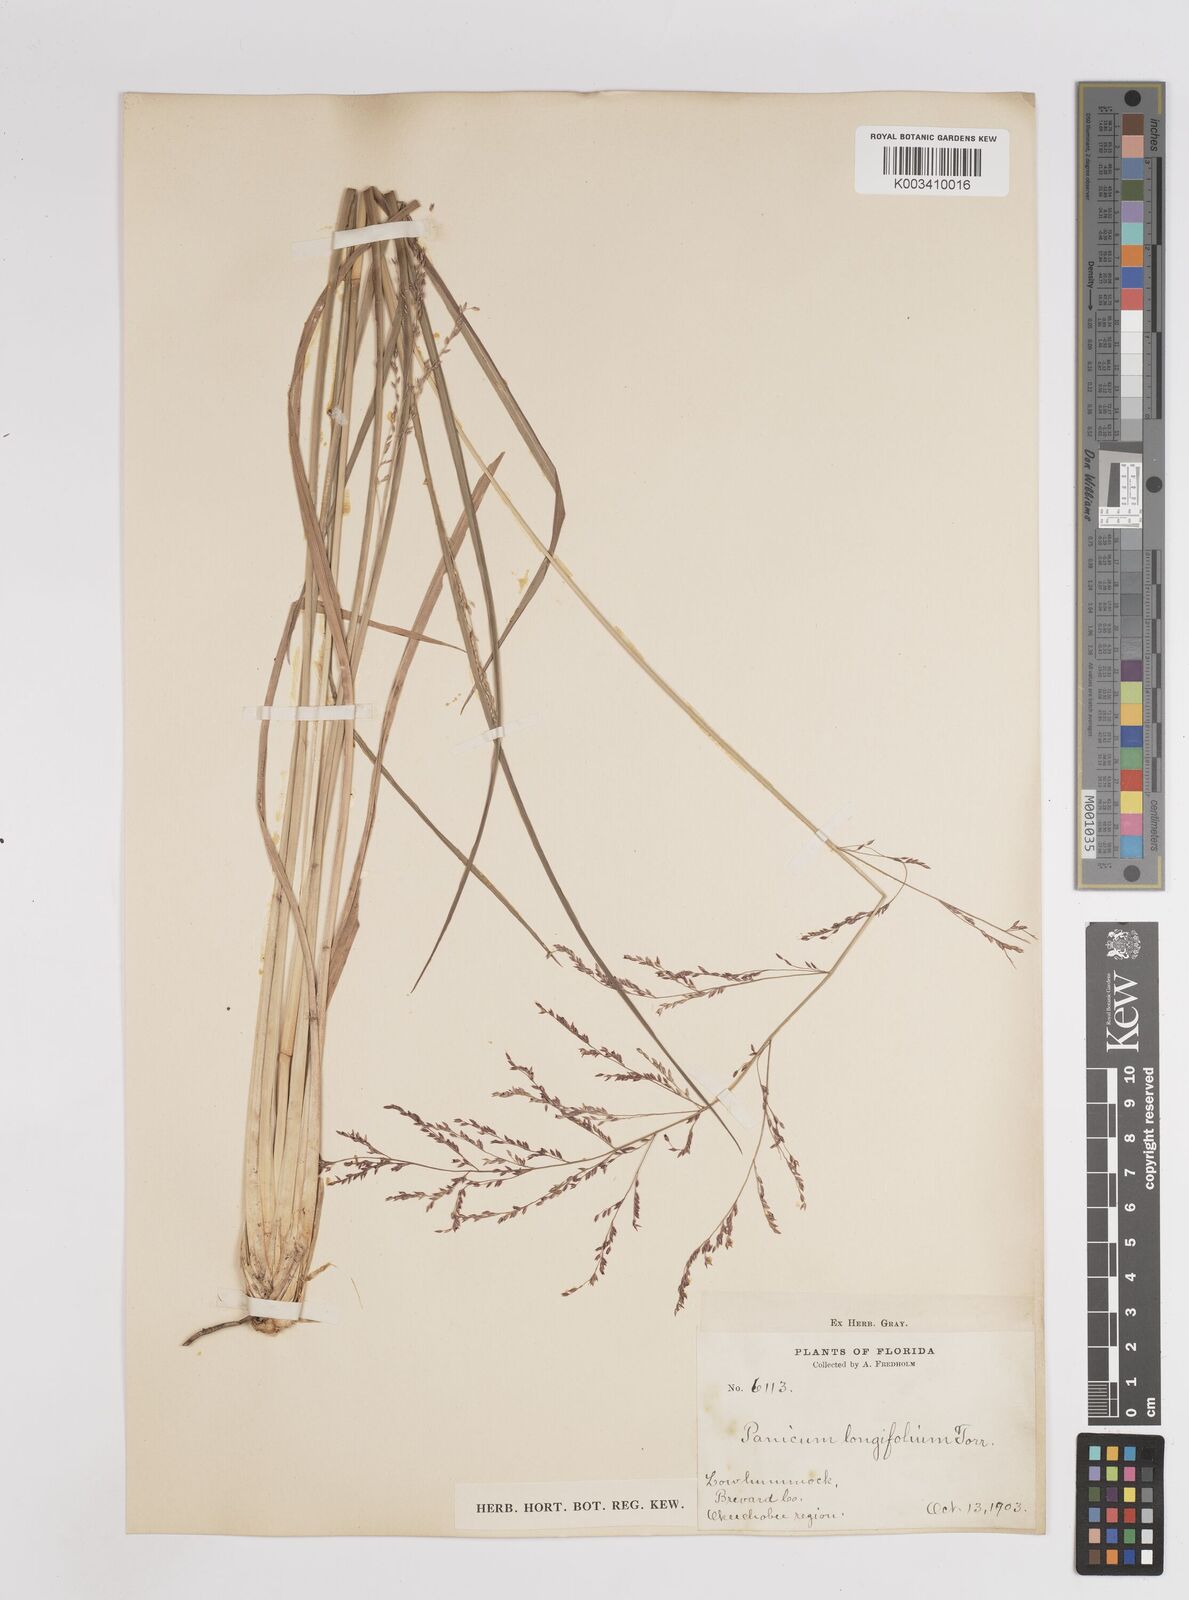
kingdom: Plantae
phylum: Tracheophyta
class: Liliopsida
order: Poales
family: Poaceae
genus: Coleataenia
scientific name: Coleataenia longifolia
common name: Long-leaved panicgrass
